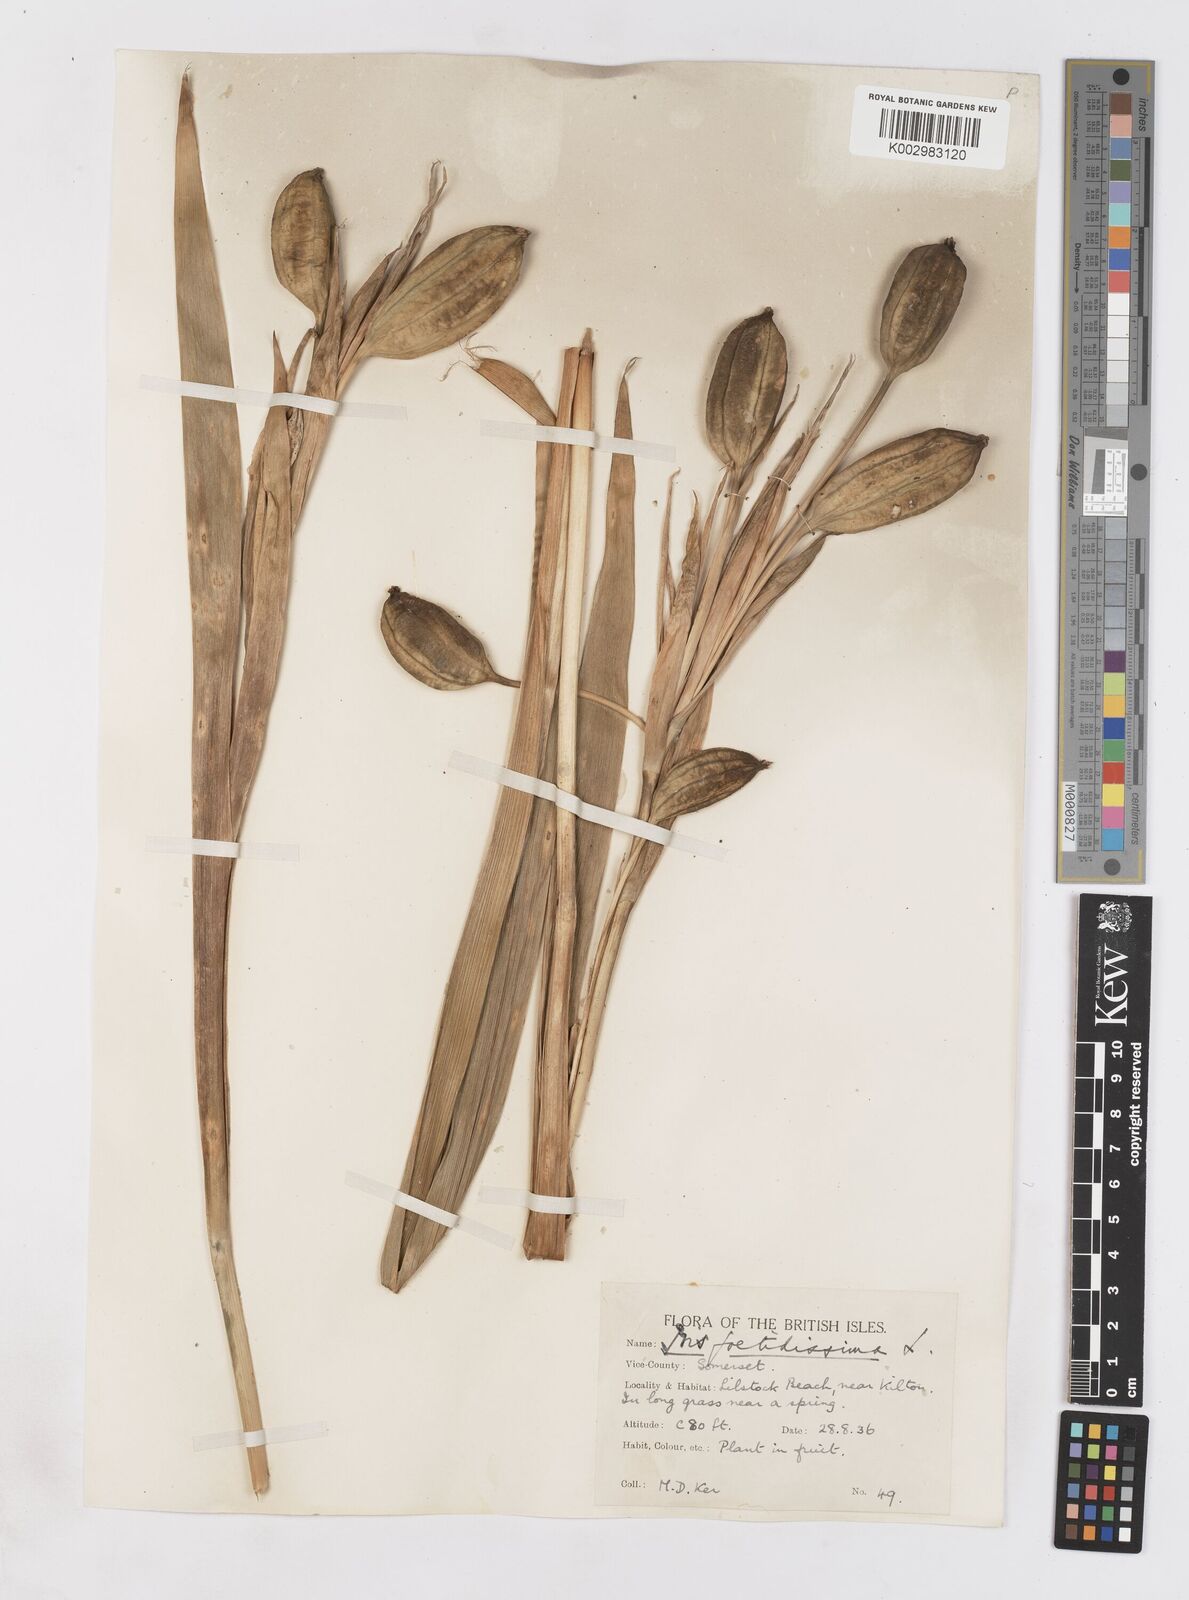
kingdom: Plantae
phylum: Tracheophyta
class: Liliopsida
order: Asparagales
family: Iridaceae
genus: Iris
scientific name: Iris foetidissima
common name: Stinking iris
